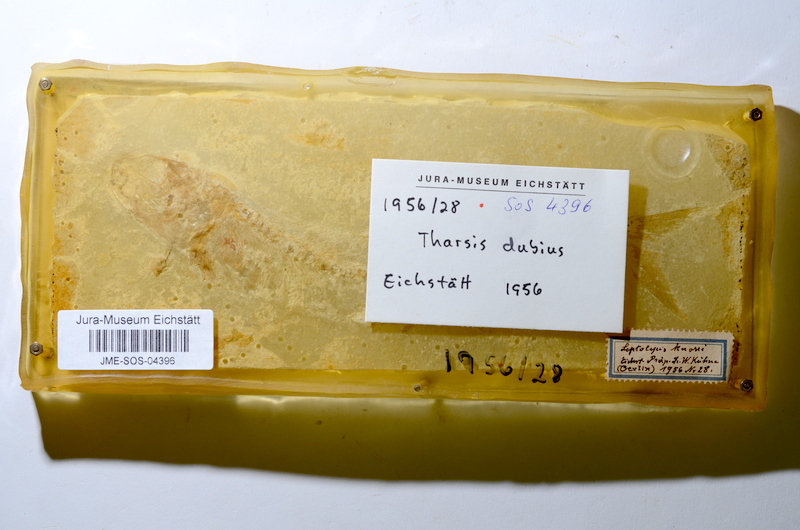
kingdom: Animalia
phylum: Chordata
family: Ascalaboidae
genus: Tharsis
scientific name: Tharsis dubius
